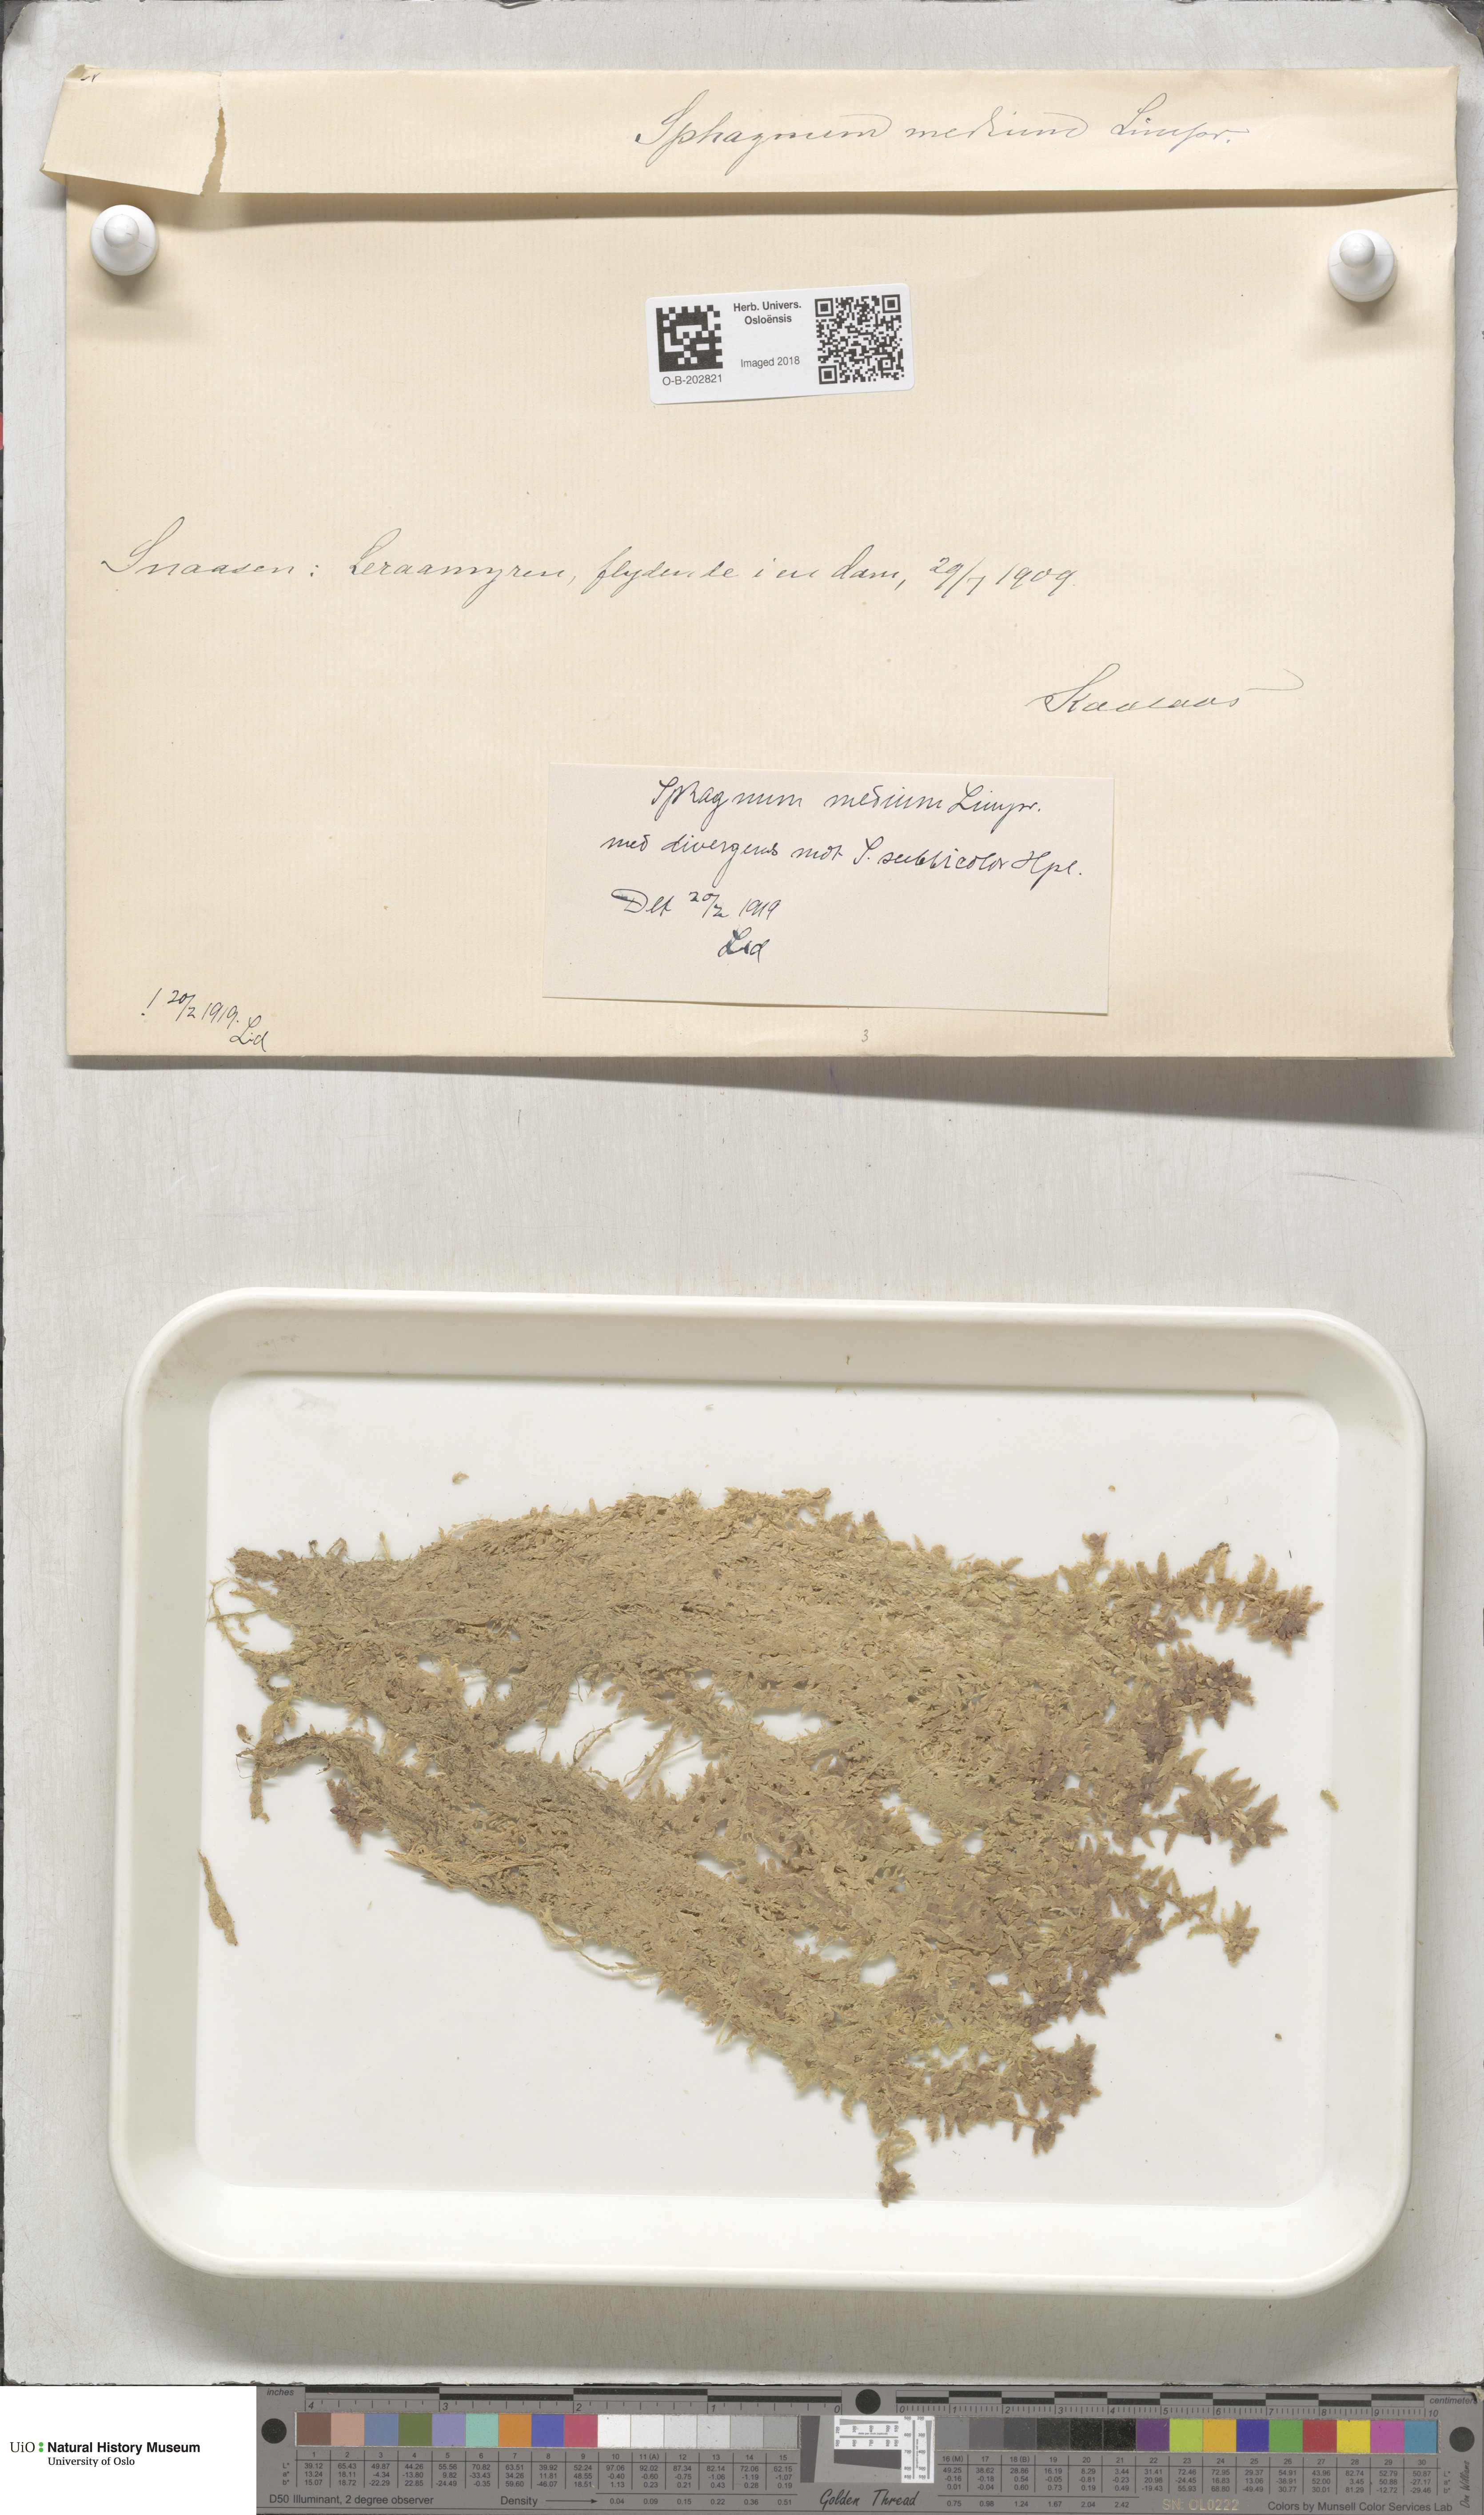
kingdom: Plantae
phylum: Bryophyta
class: Sphagnopsida
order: Sphagnales
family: Sphagnaceae
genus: Sphagnum
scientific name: Sphagnum magellanicum
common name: Magellan's peat moss
